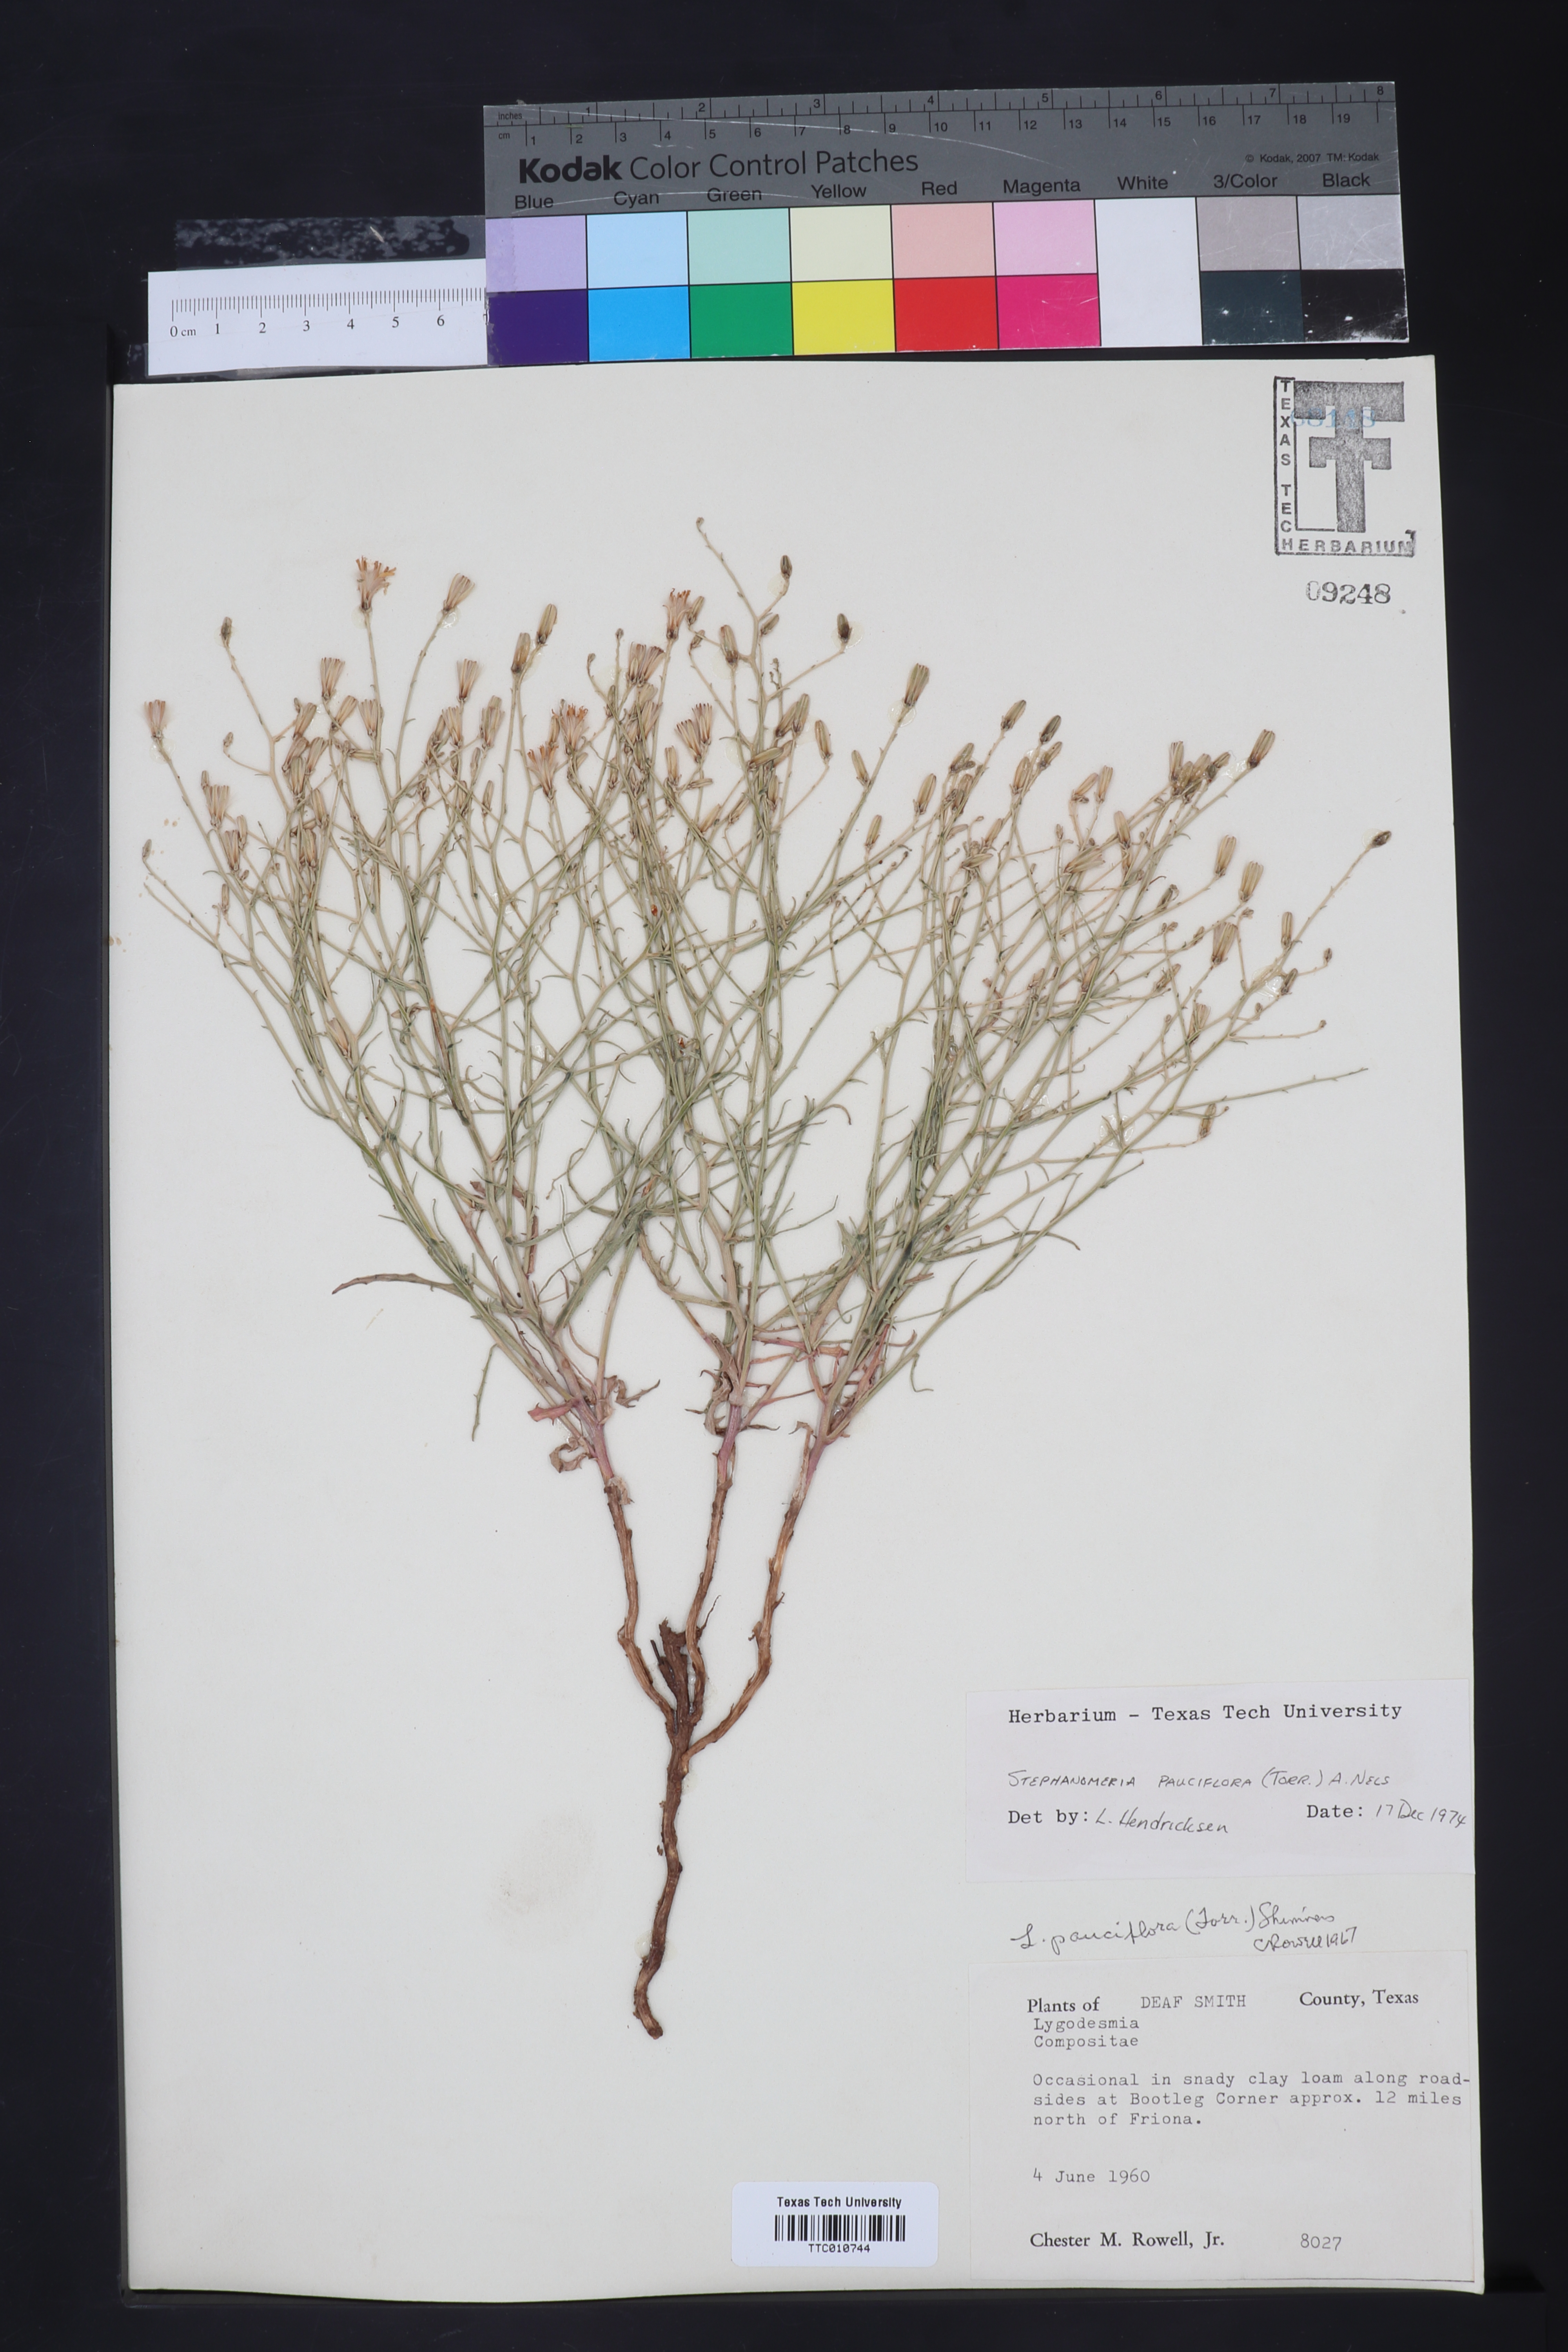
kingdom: Plantae
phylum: Tracheophyta
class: Magnoliopsida
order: Asterales
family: Asteraceae
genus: Stephanomeria
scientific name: Stephanomeria pauciflora
